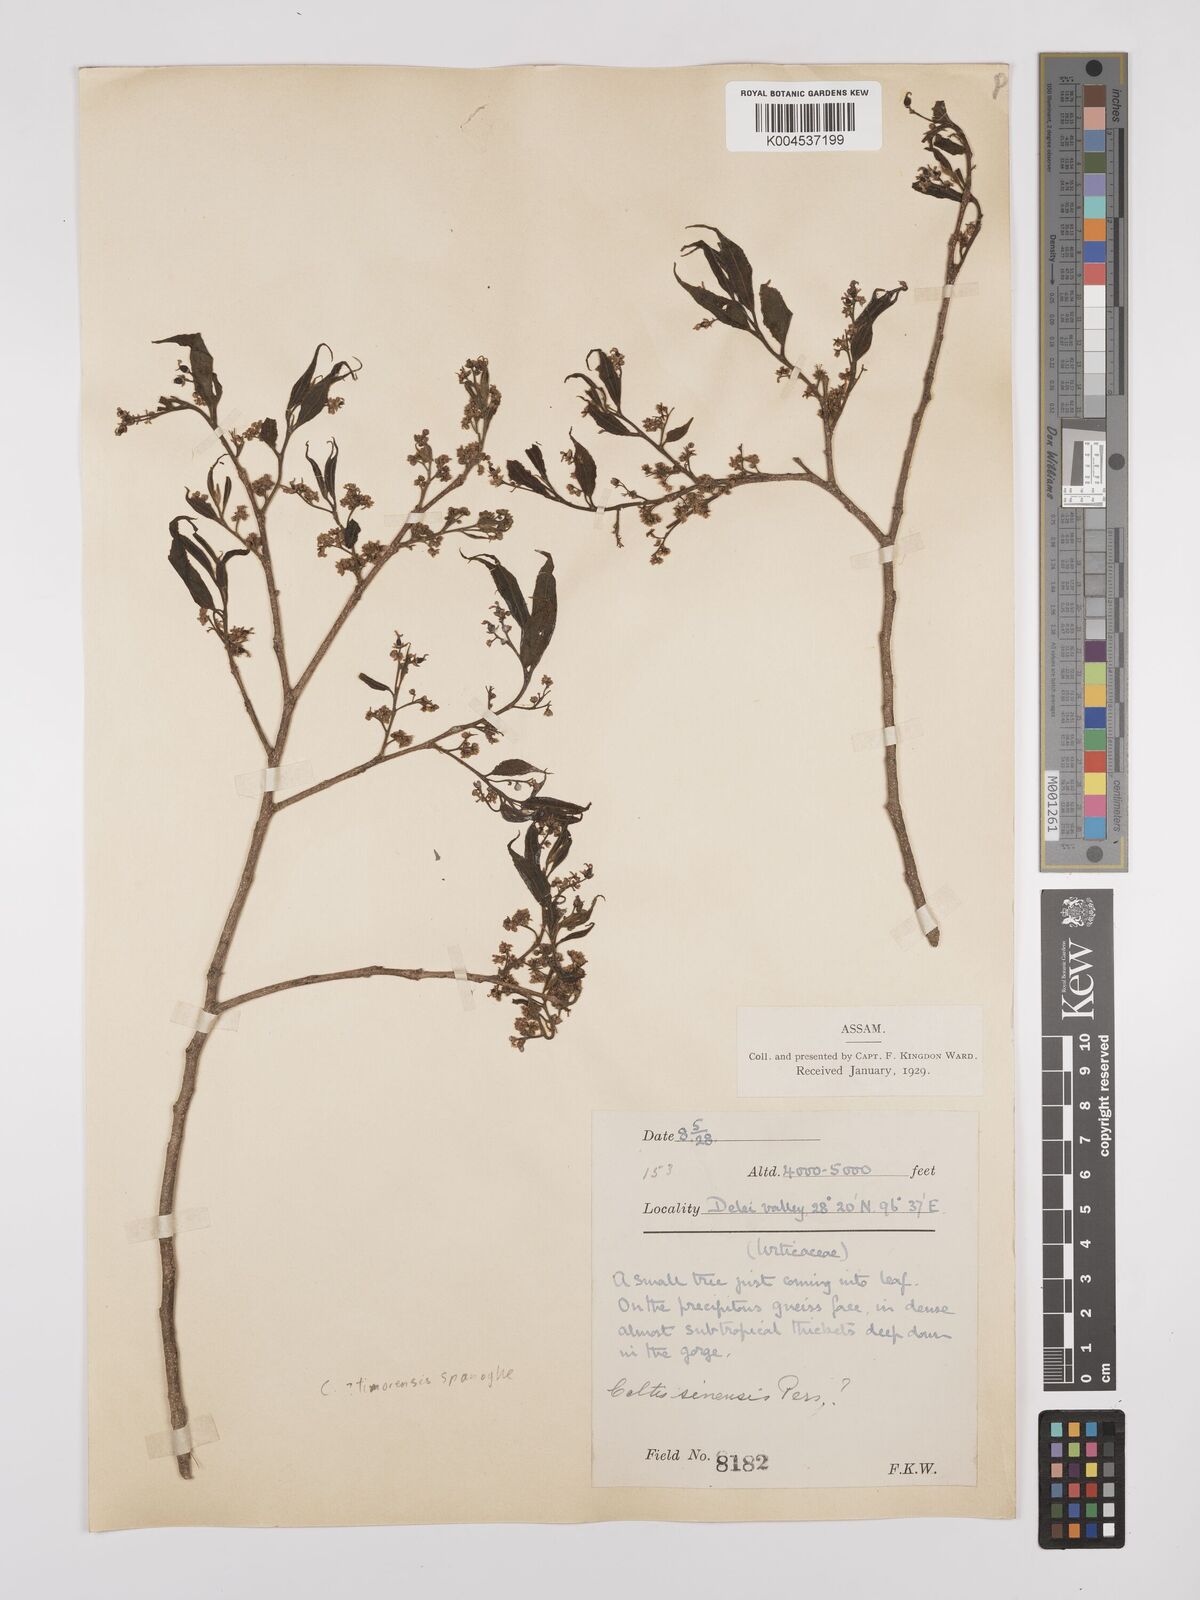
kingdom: Plantae
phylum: Tracheophyta
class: Magnoliopsida
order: Rosales
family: Cannabaceae
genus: Celtis
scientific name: Celtis timorensis
